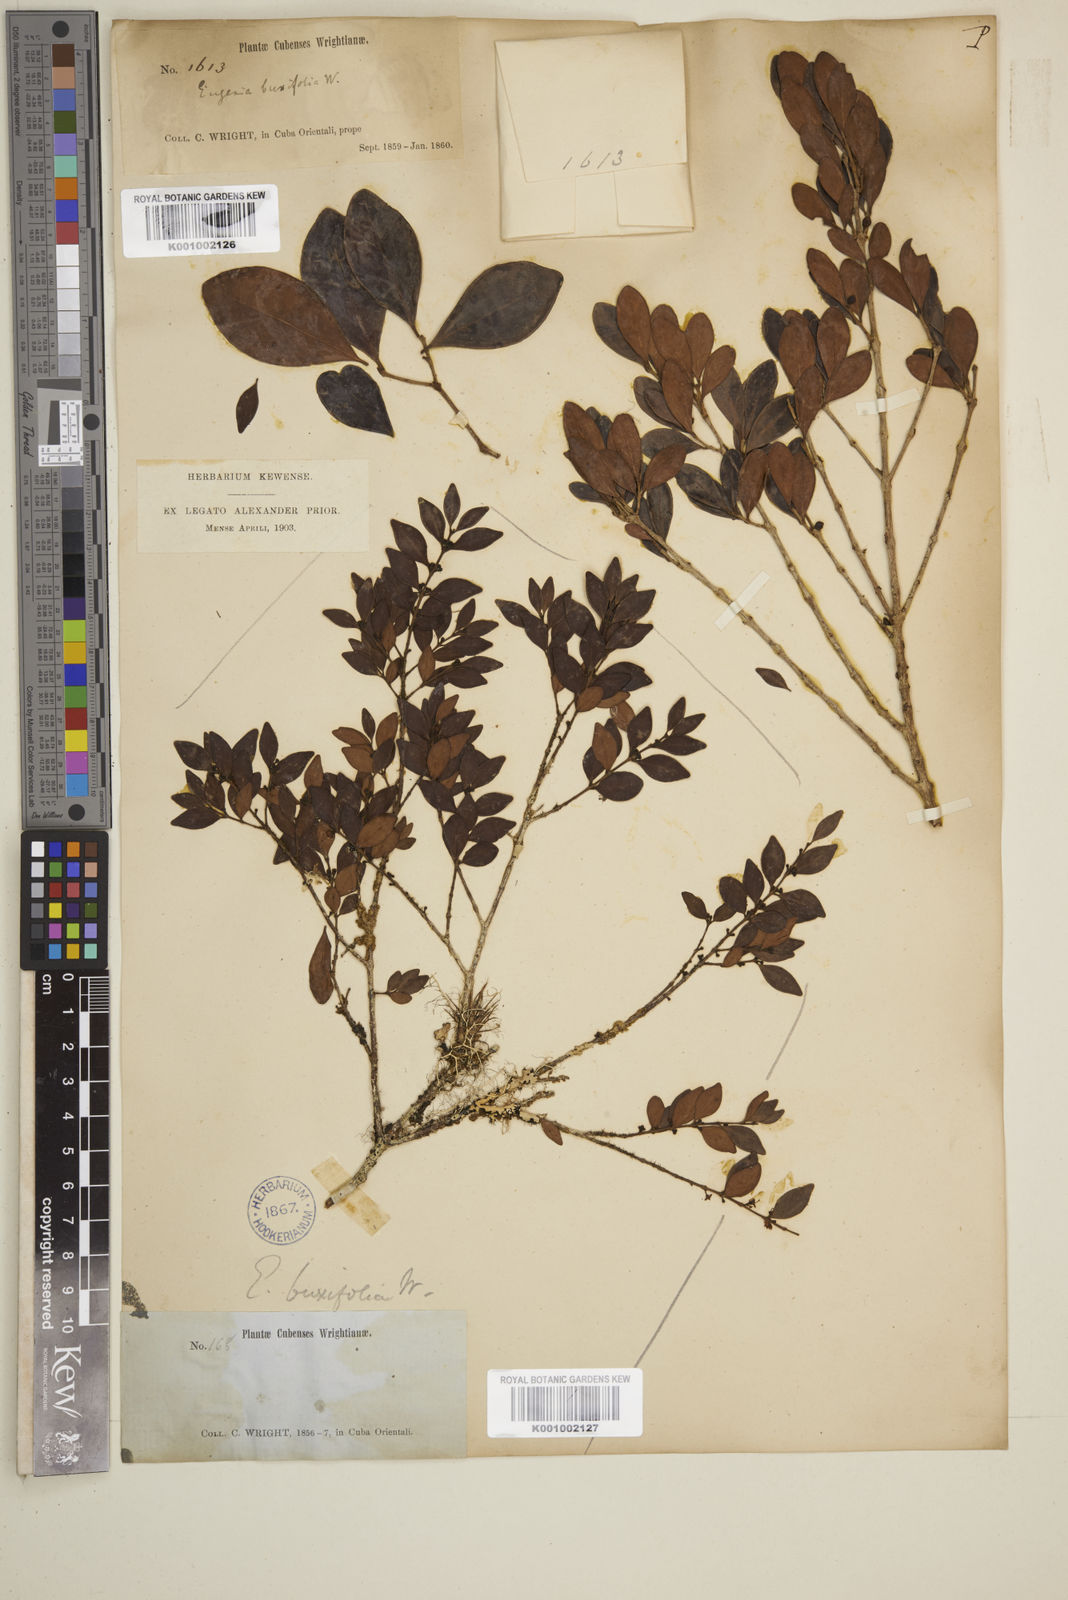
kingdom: Plantae
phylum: Tracheophyta
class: Magnoliopsida
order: Myrtales
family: Myrtaceae
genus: Eugenia
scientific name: Eugenia monticola
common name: Birds berry
